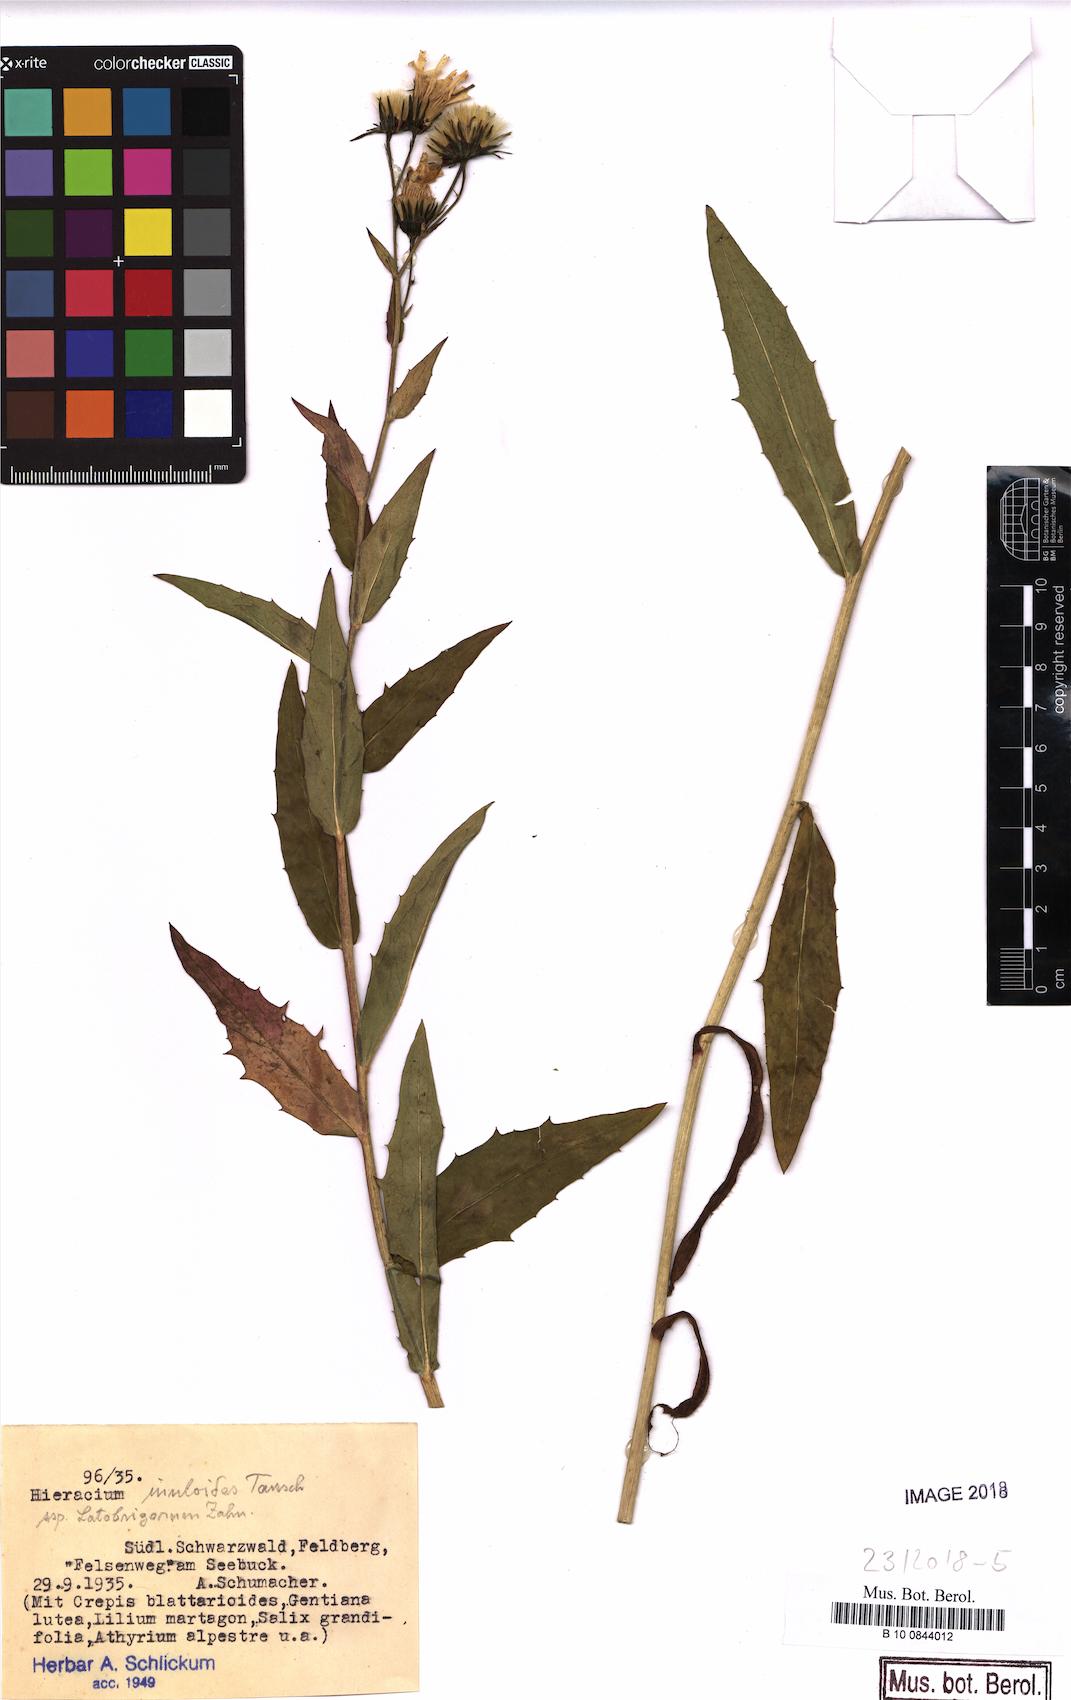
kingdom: Plantae
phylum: Tracheophyta
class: Magnoliopsida
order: Asterales
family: Asteraceae
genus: Hieracium
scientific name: Hieracium inuloides
